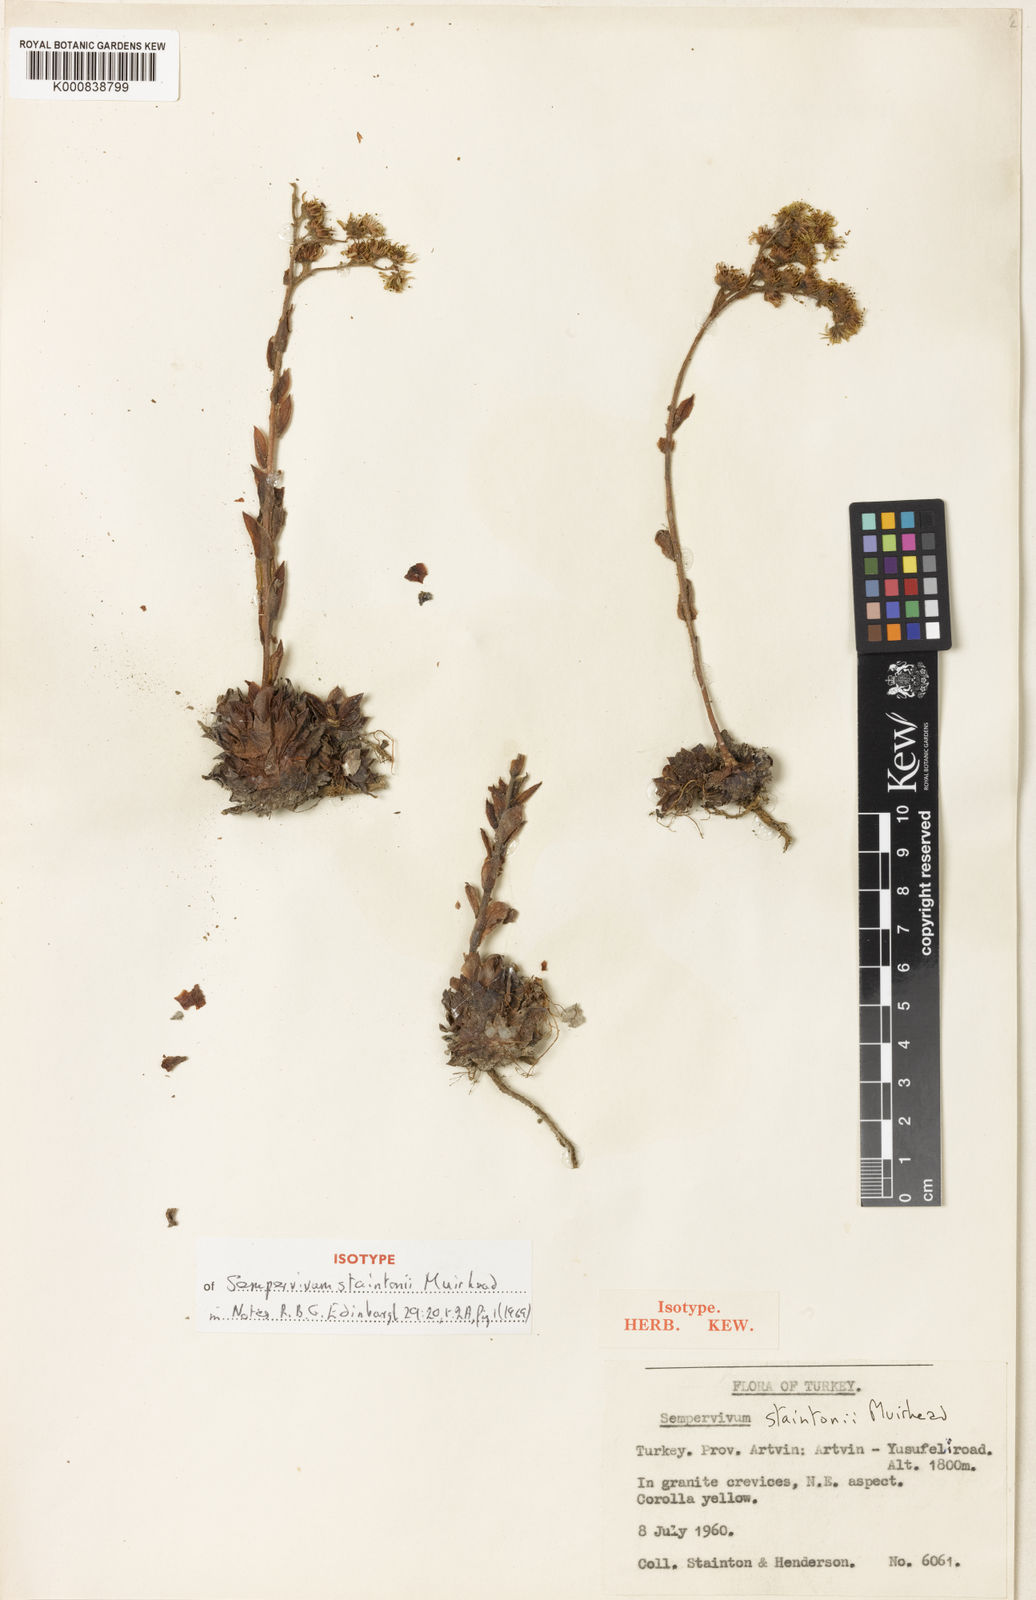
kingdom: Plantae
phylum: Tracheophyta
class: Magnoliopsida
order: Saxifragales
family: Crassulaceae
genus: Sempervivum
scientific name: Sempervivum staintonii
